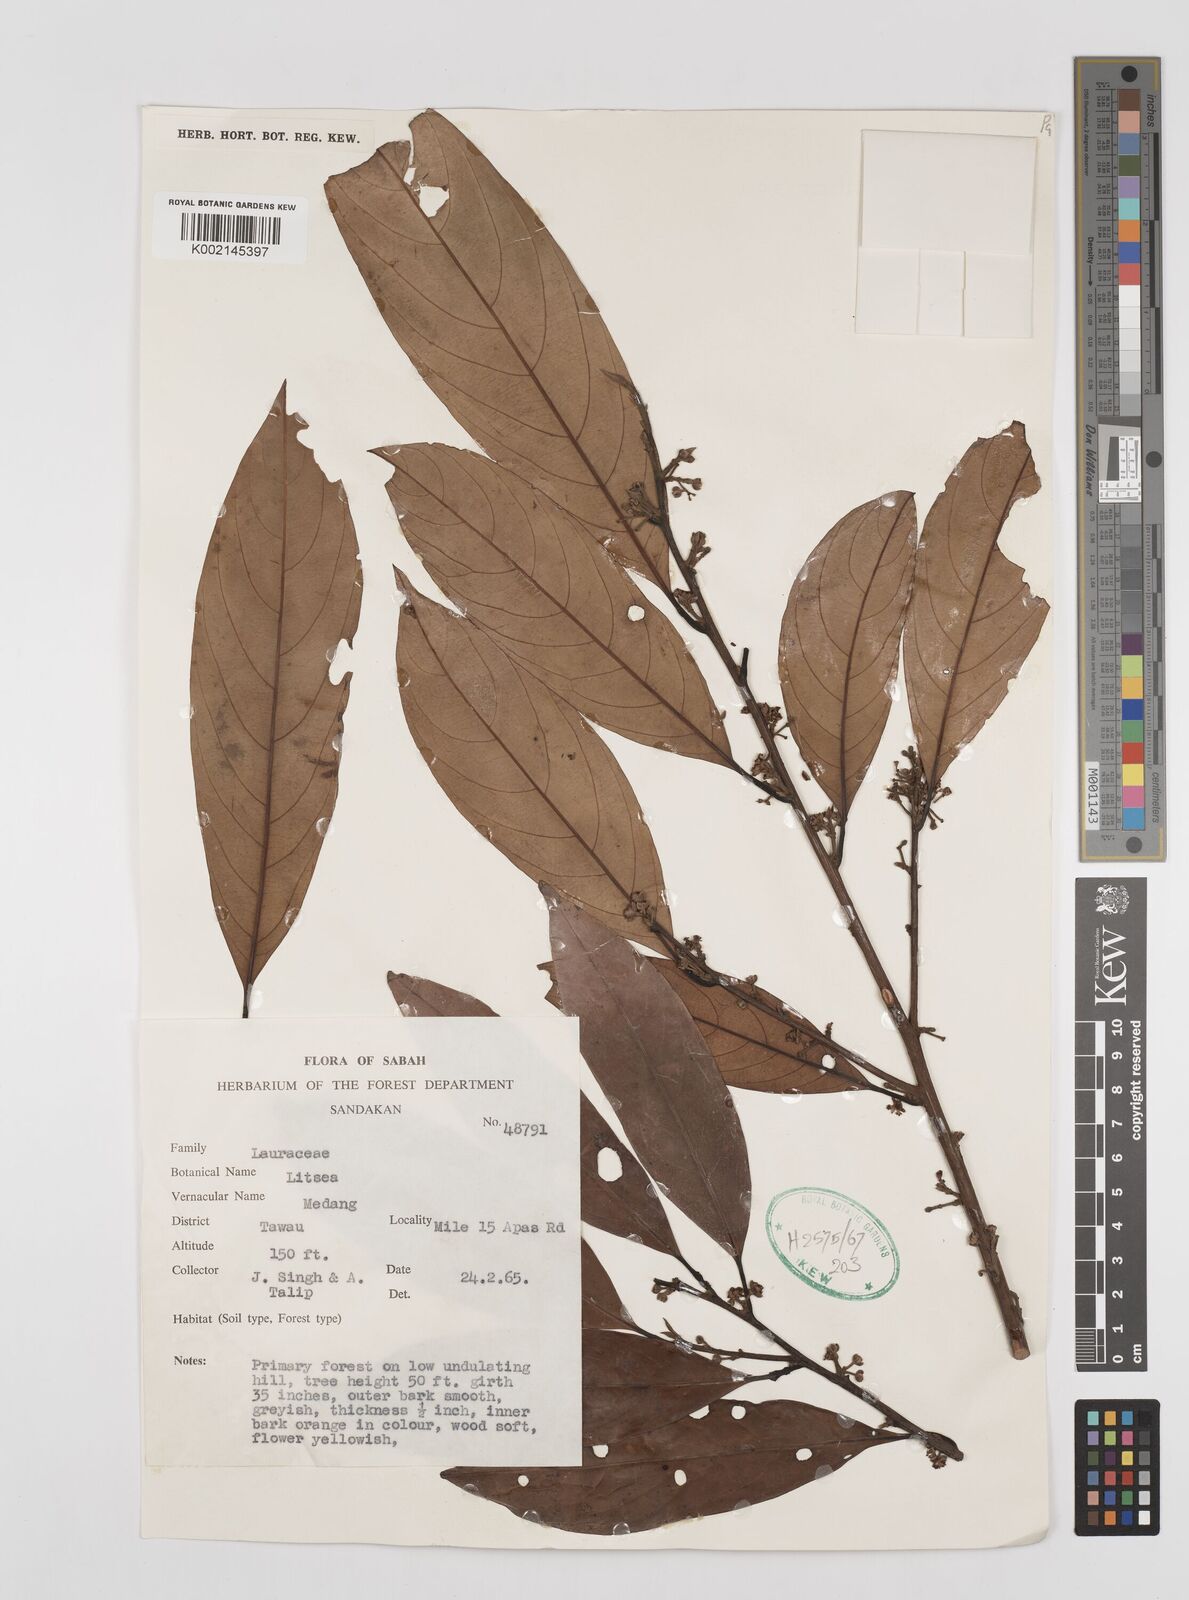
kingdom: Plantae
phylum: Tracheophyta
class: Magnoliopsida
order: Laurales
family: Lauraceae
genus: Litsea
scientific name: Litsea
